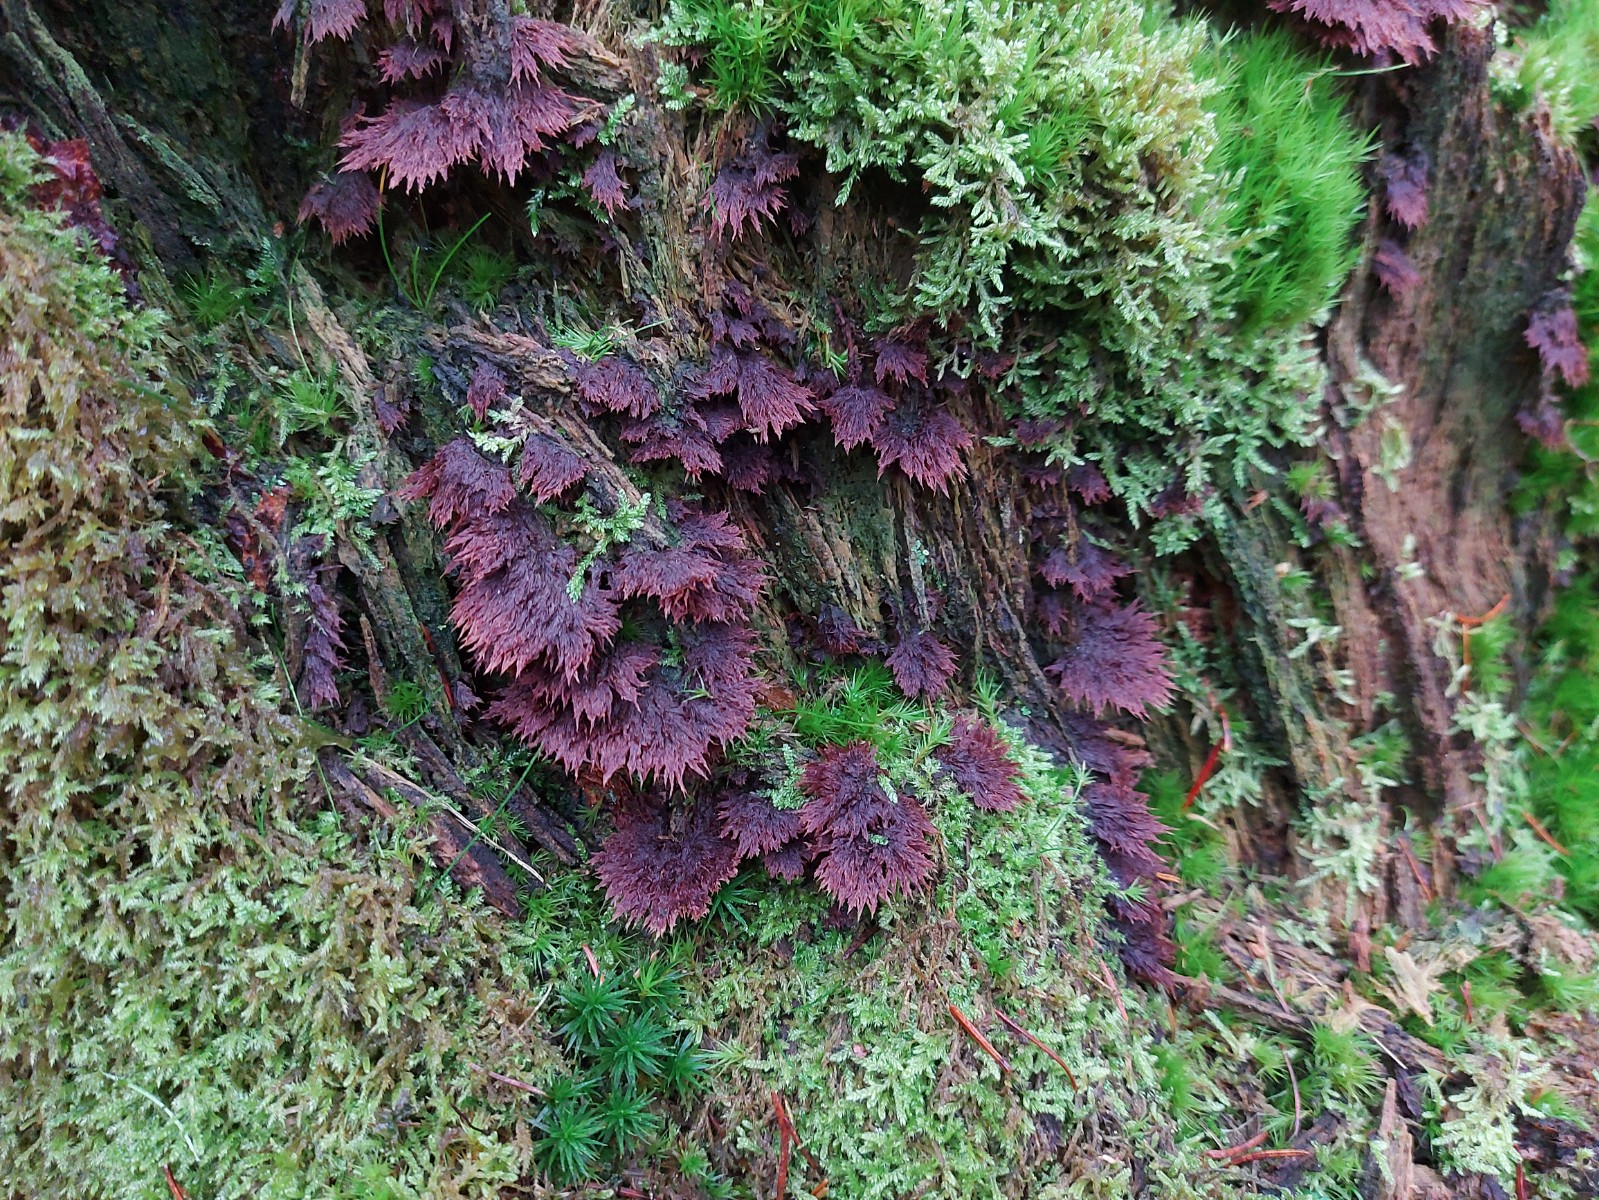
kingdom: Fungi
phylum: Basidiomycota
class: Agaricomycetes
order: Thelephorales
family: Thelephoraceae
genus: Thelephora
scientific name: Thelephora terrestris
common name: fliget frynsesvamp
